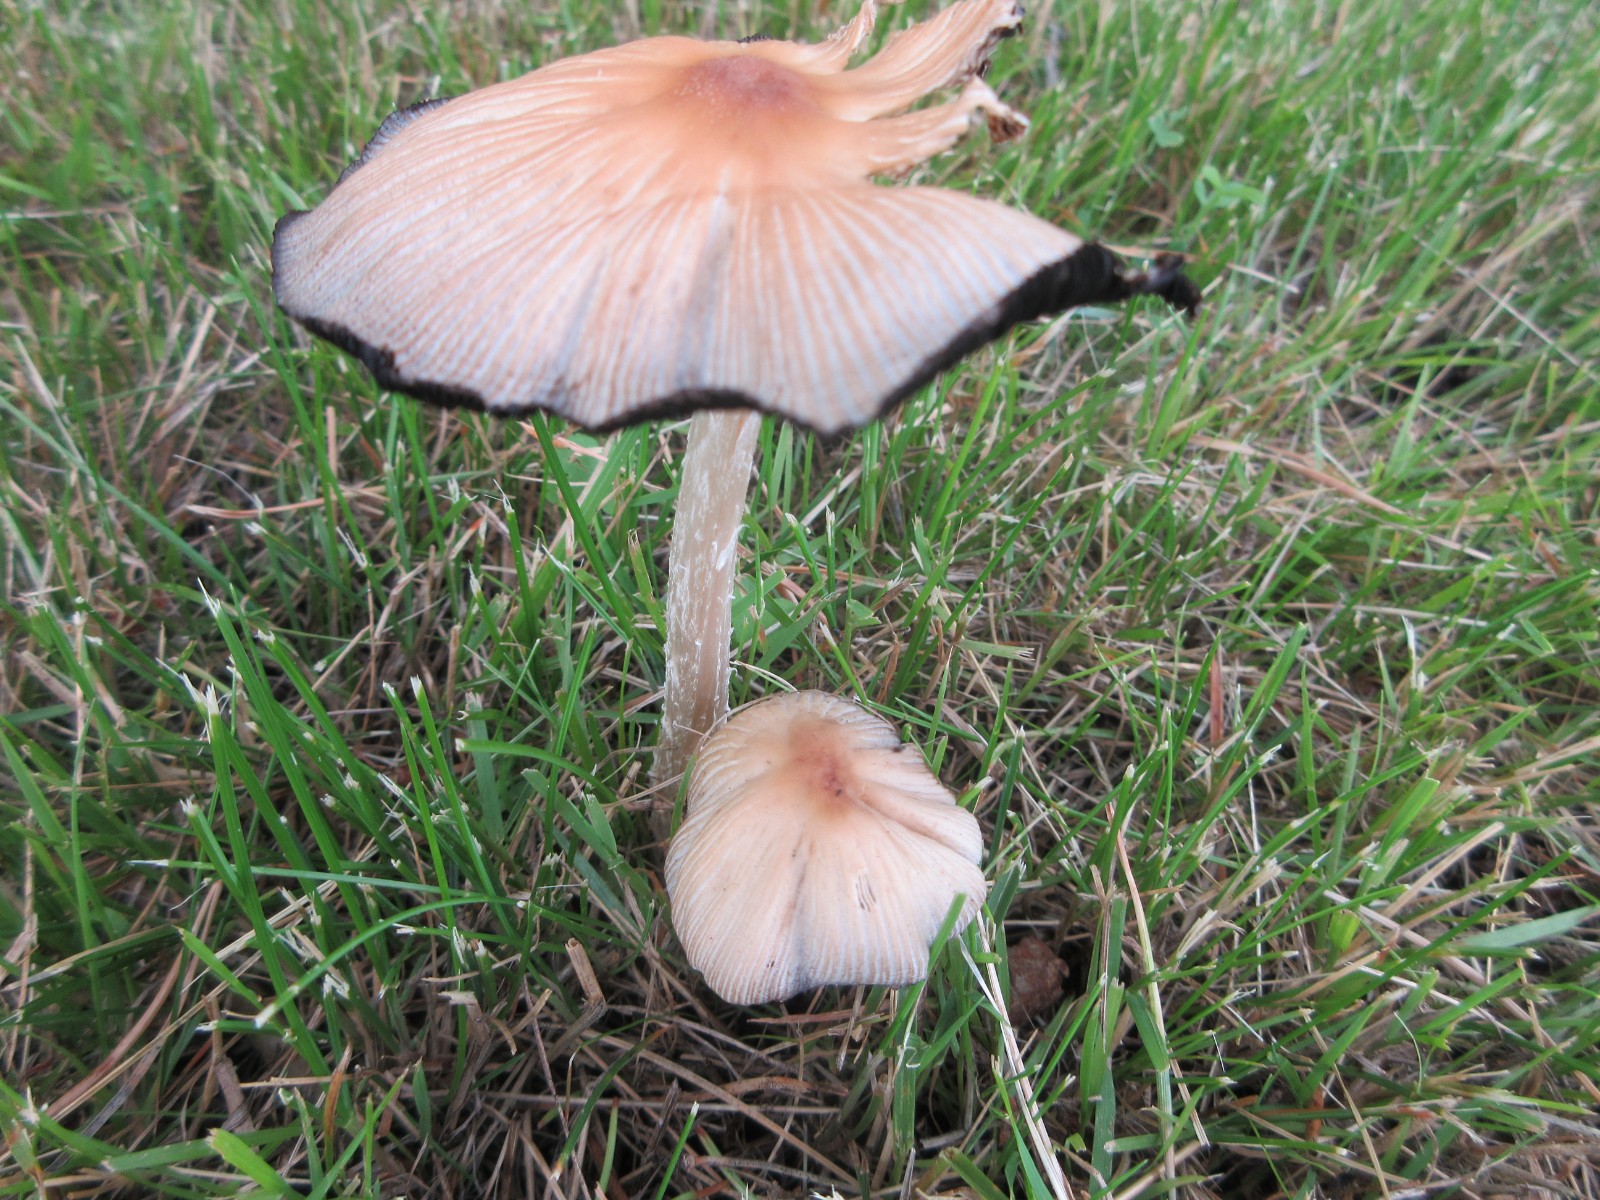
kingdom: Fungi
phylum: Basidiomycota
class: Agaricomycetes
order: Agaricales
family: Psathyrellaceae
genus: Coprinellus
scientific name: Coprinellus
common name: blækhat
